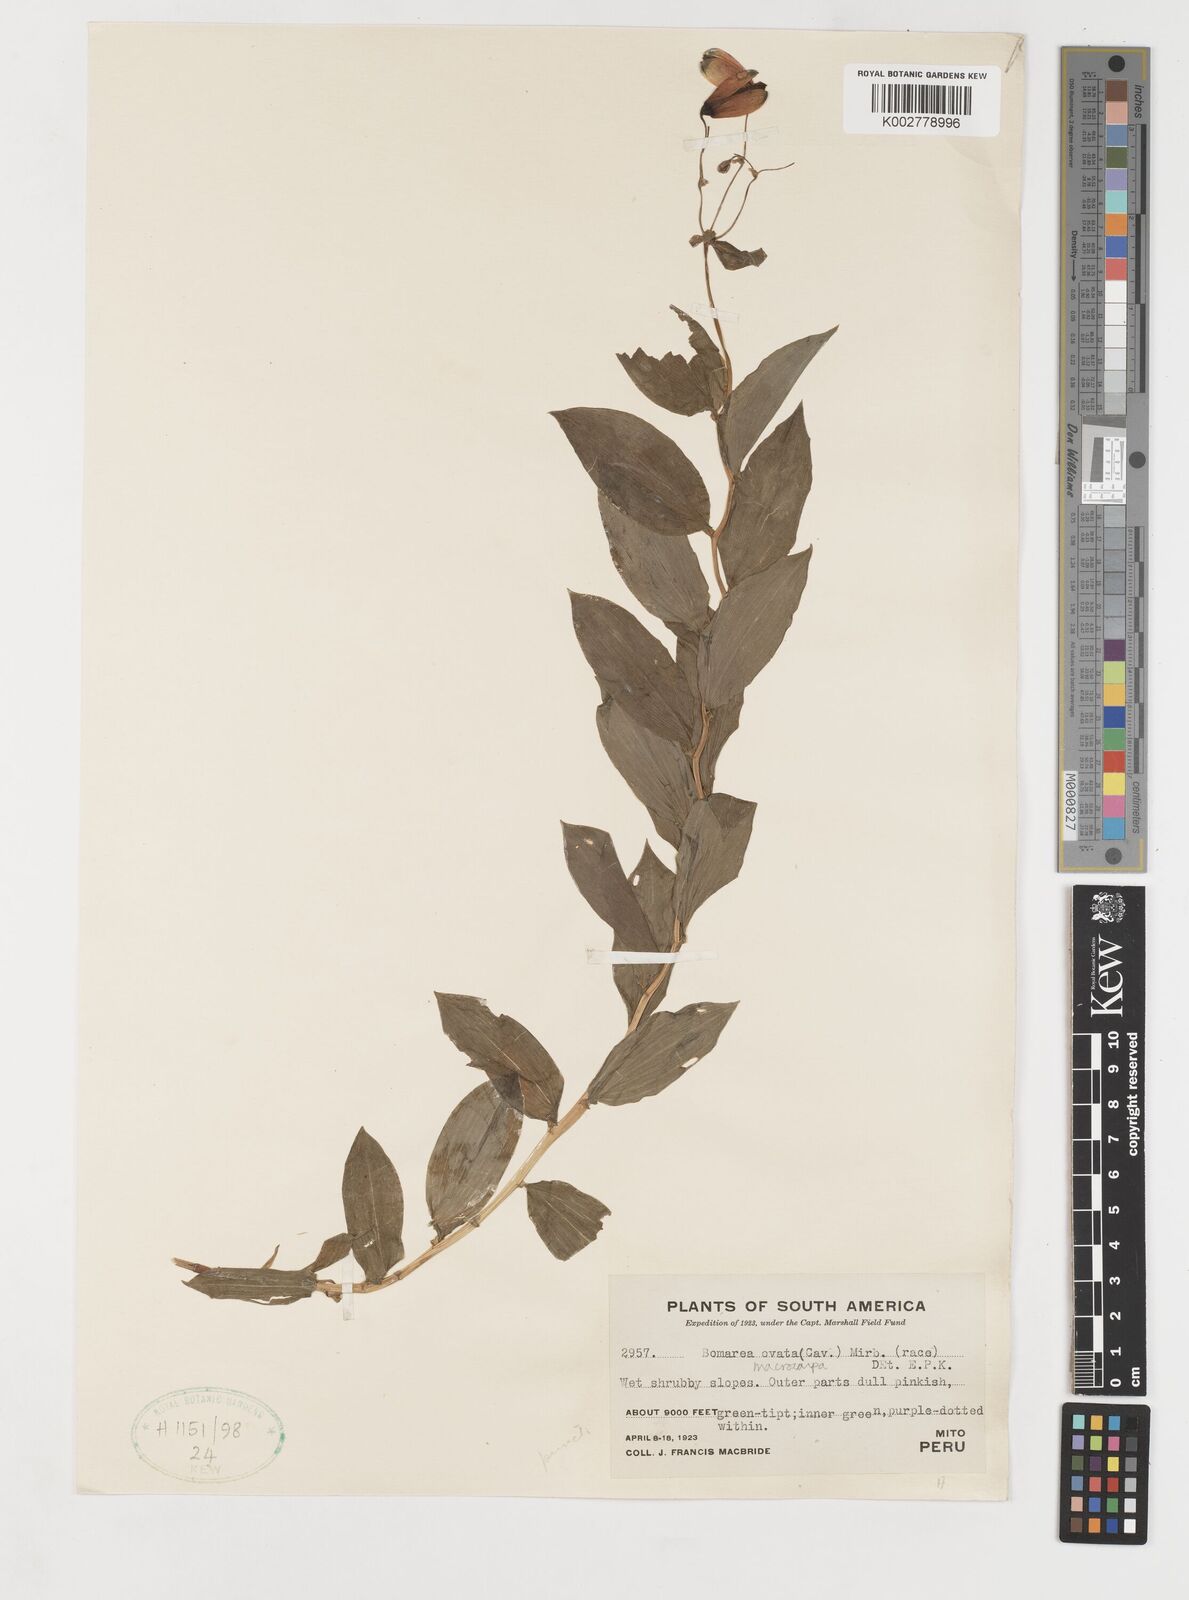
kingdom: Plantae
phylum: Tracheophyta
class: Liliopsida
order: Liliales
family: Alstroemeriaceae
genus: Bomarea
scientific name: Bomarea ovata
